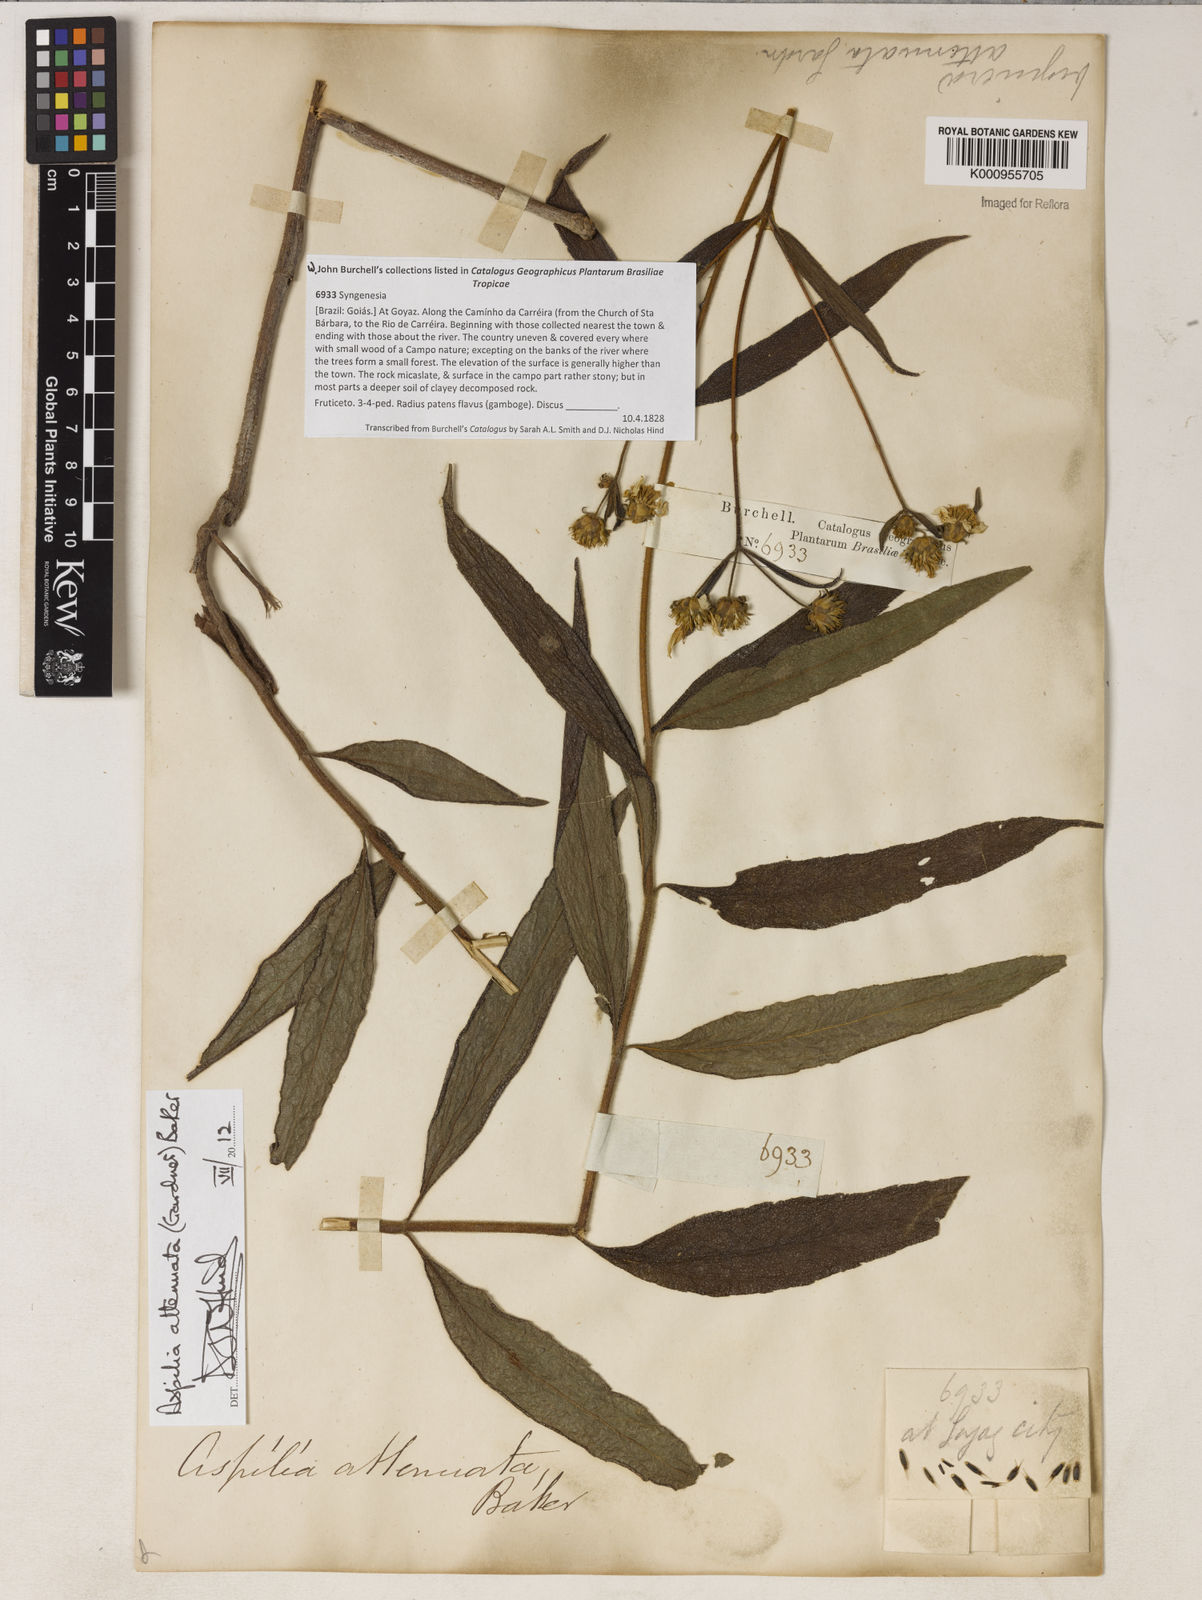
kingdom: Plantae
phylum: Tracheophyta
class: Magnoliopsida
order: Asterales
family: Asteraceae
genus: Wedelia
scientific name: Wedelia attenuata
